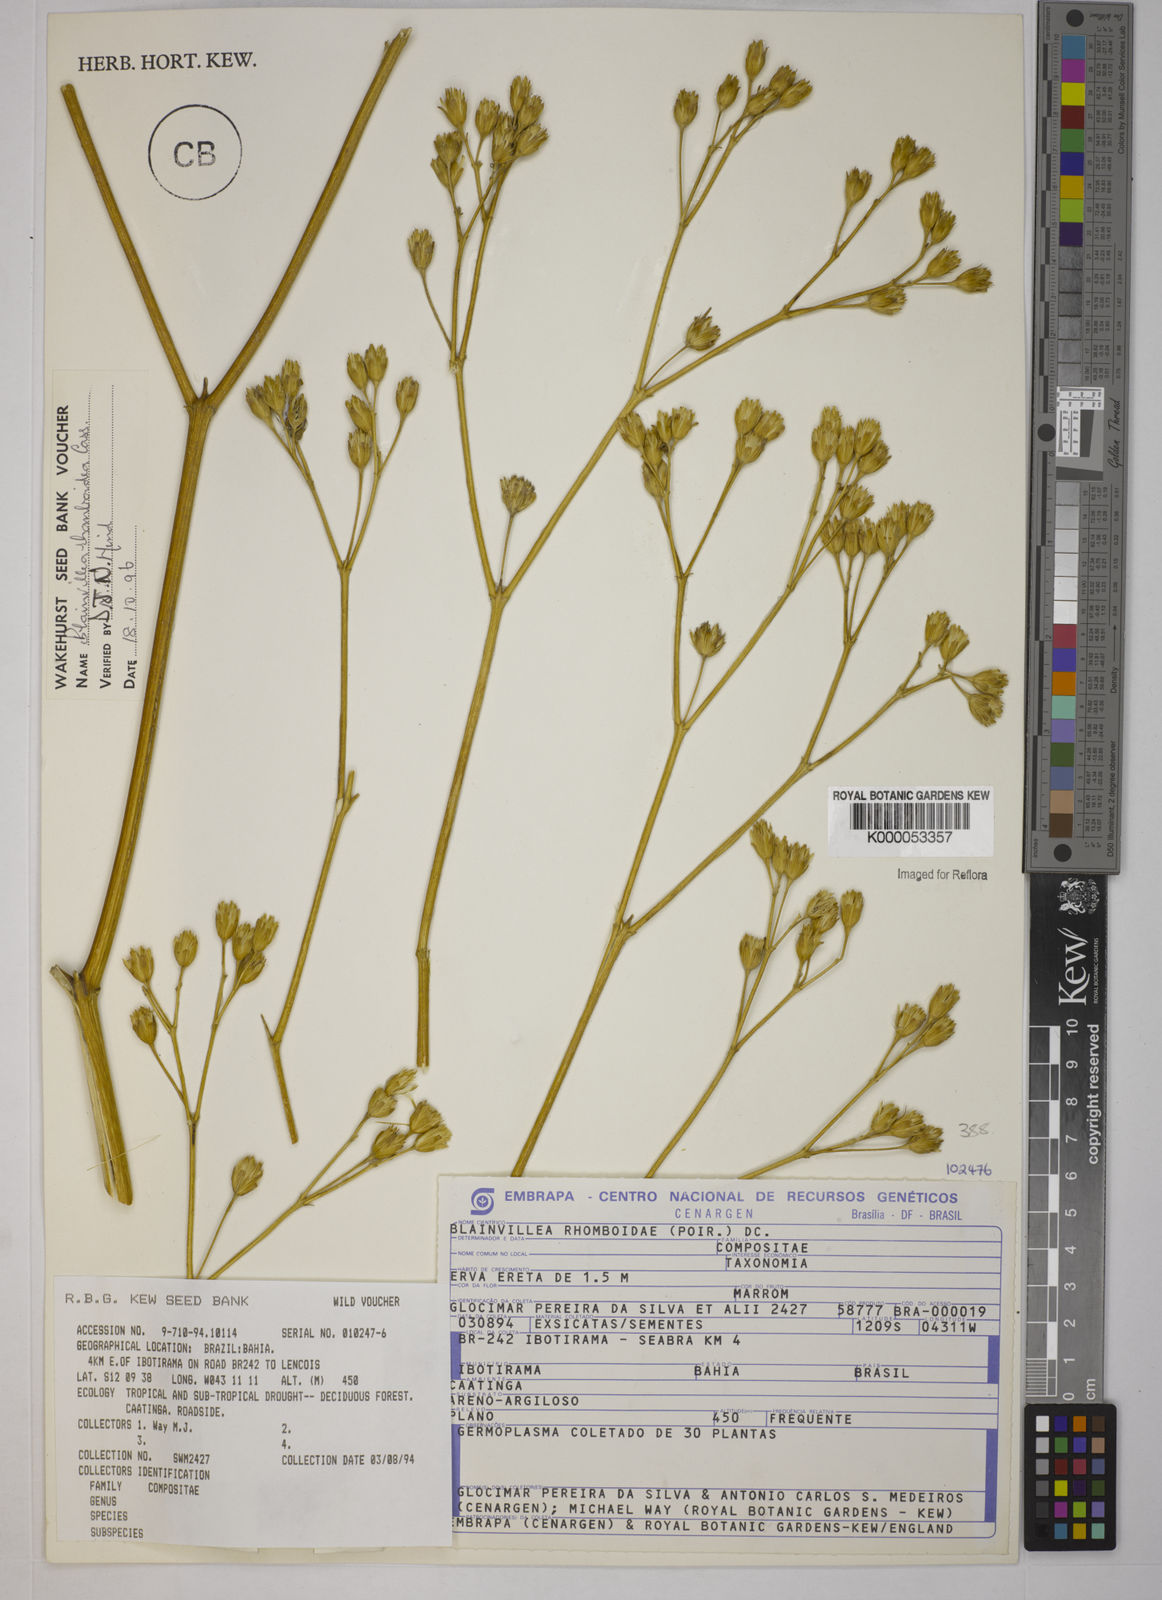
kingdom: Plantae
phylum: Tracheophyta
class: Magnoliopsida
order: Asterales
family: Asteraceae
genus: Blainvillea
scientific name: Blainvillea acmella
